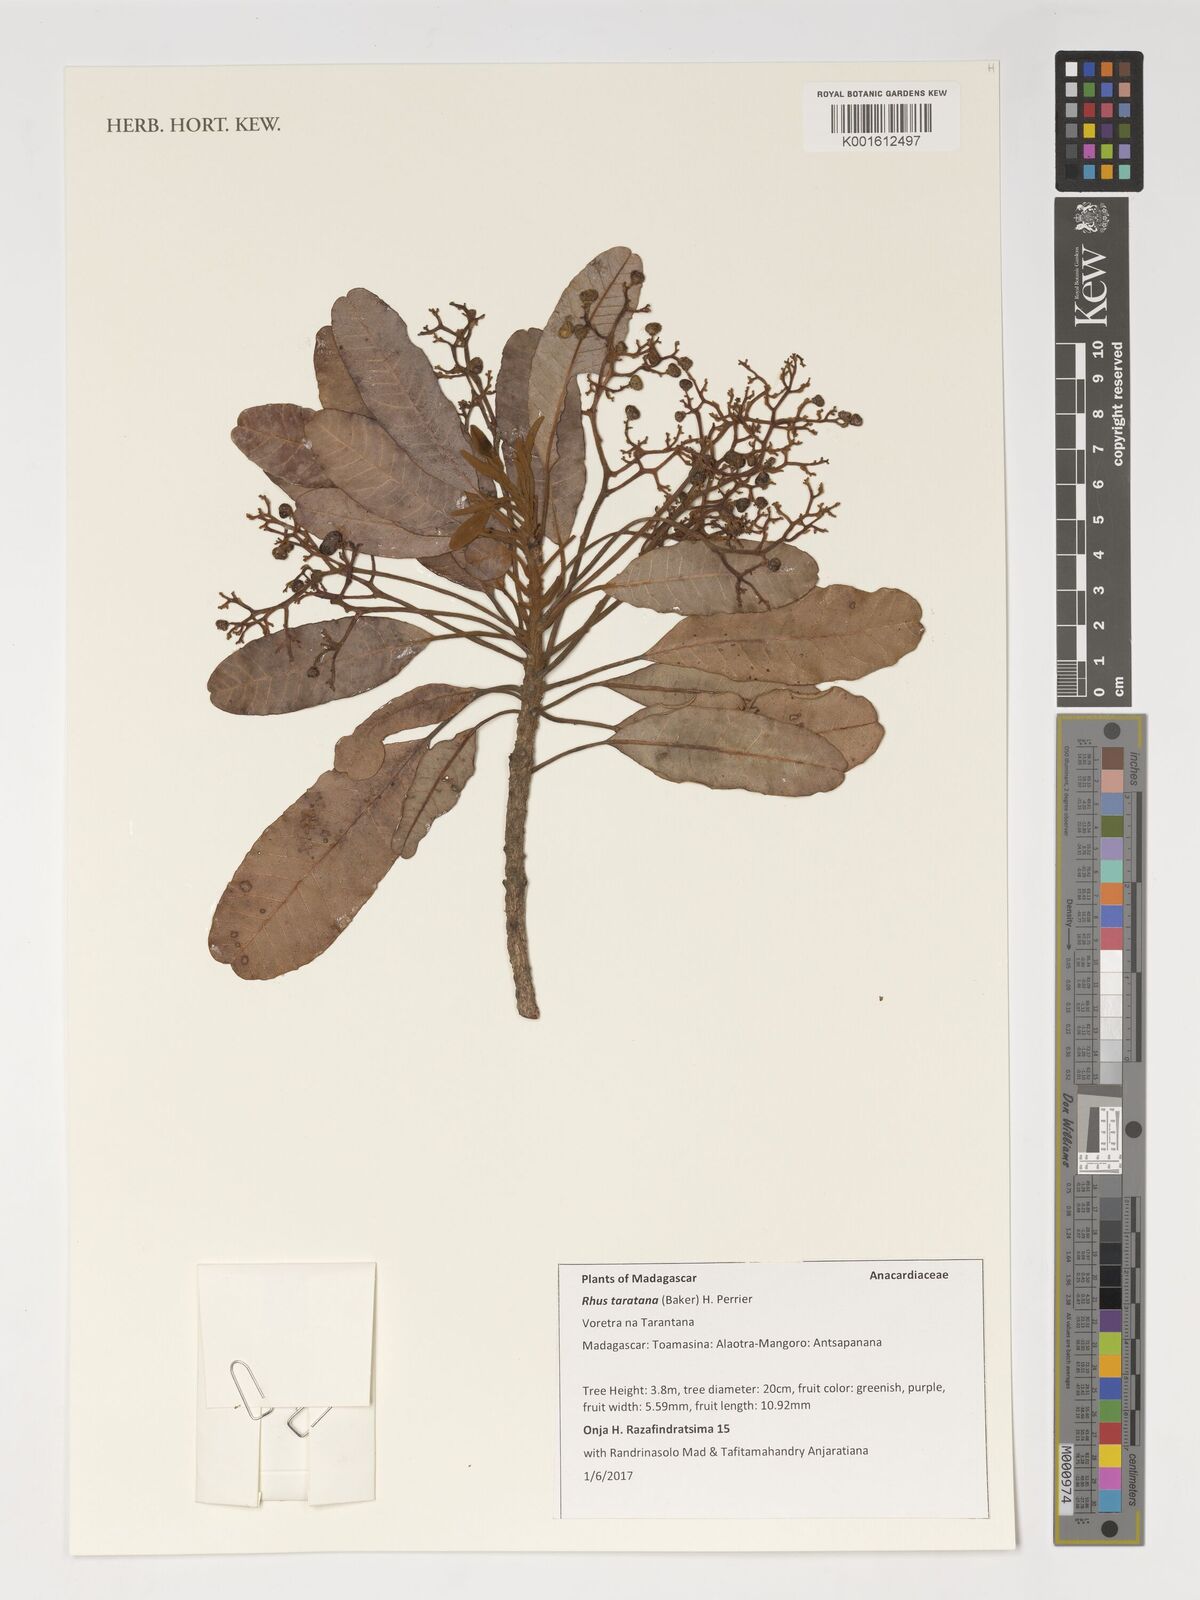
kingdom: Plantae
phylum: Tracheophyta
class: Magnoliopsida
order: Sapindales
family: Anacardiaceae
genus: Baronia
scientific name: Baronia taratana
